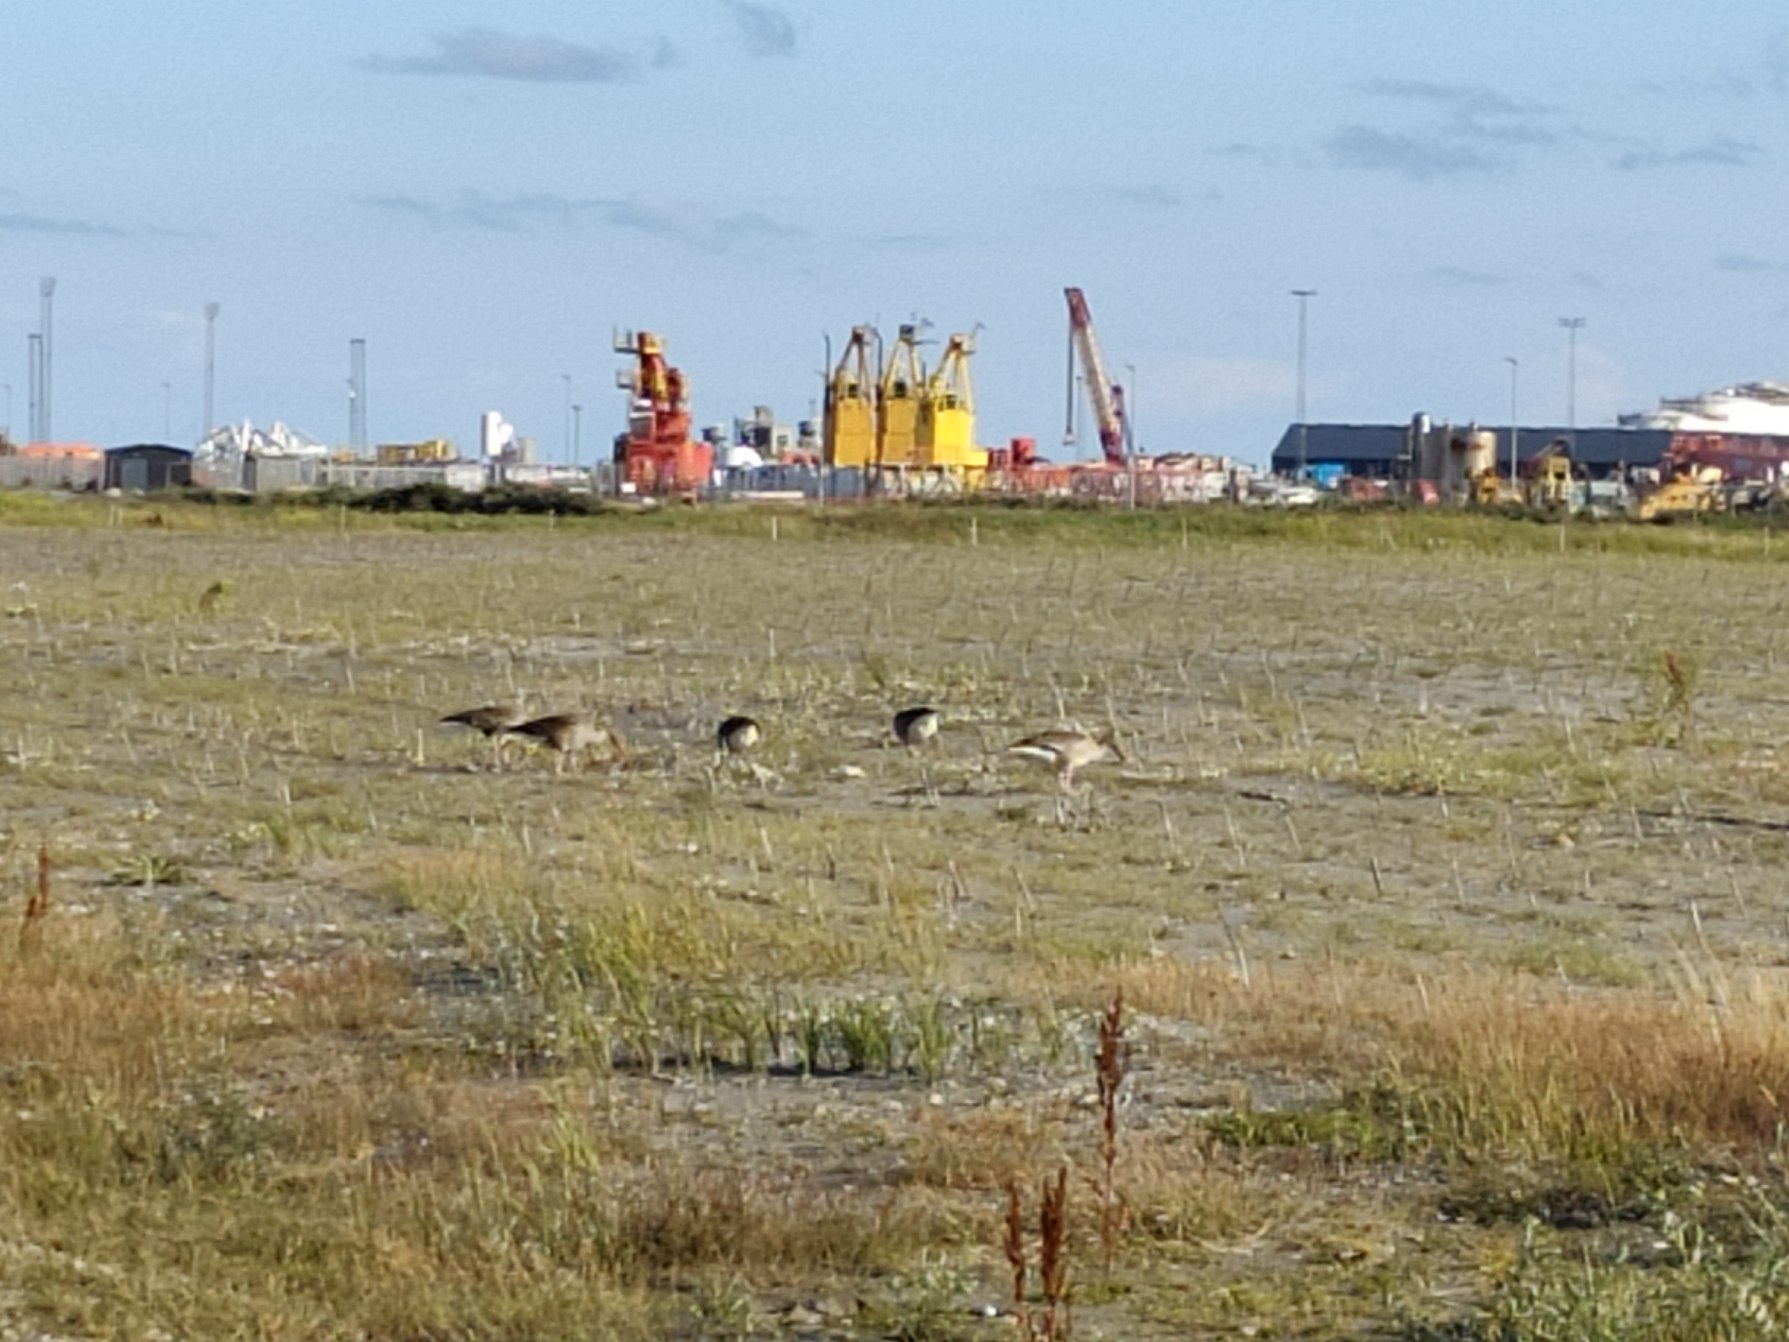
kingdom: Animalia
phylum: Chordata
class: Aves
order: Anseriformes
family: Anatidae
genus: Anser
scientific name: Anser anser
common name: Grågås
